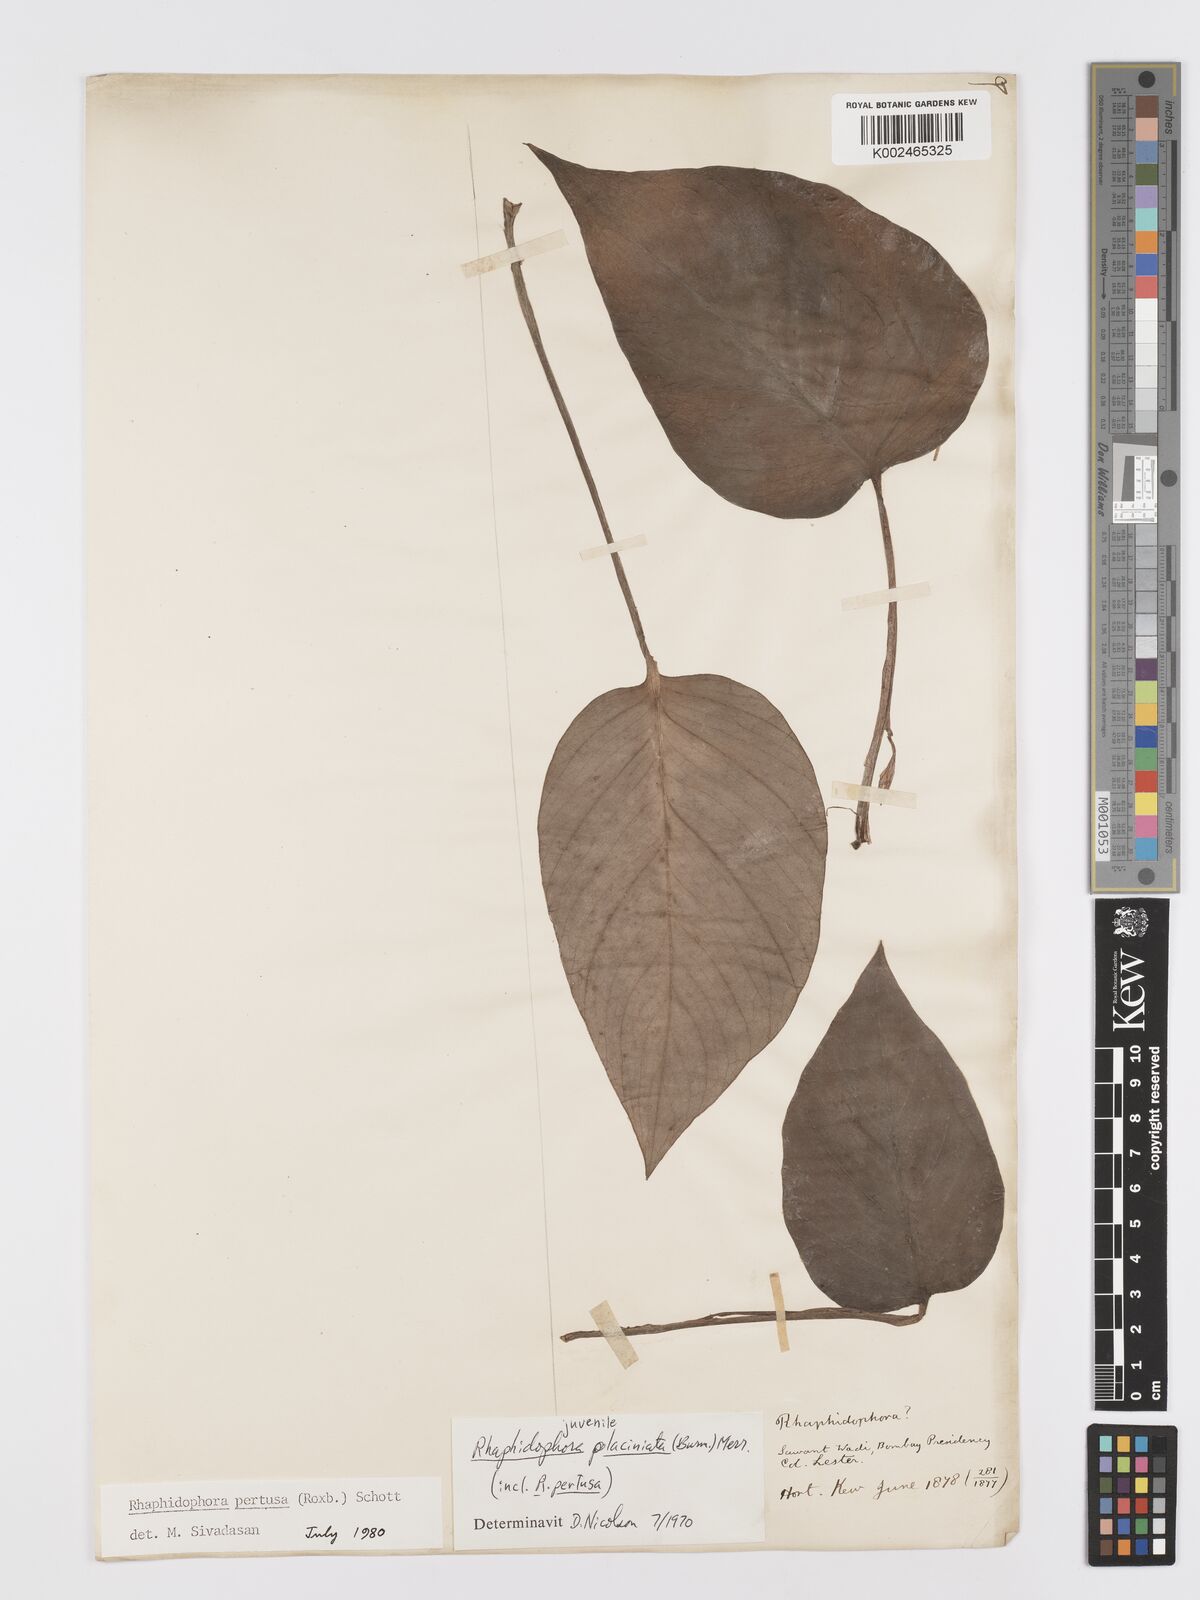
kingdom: Plantae
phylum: Tracheophyta
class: Liliopsida
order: Alismatales
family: Araceae
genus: Rhaphidophora
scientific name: Rhaphidophora pertusa
